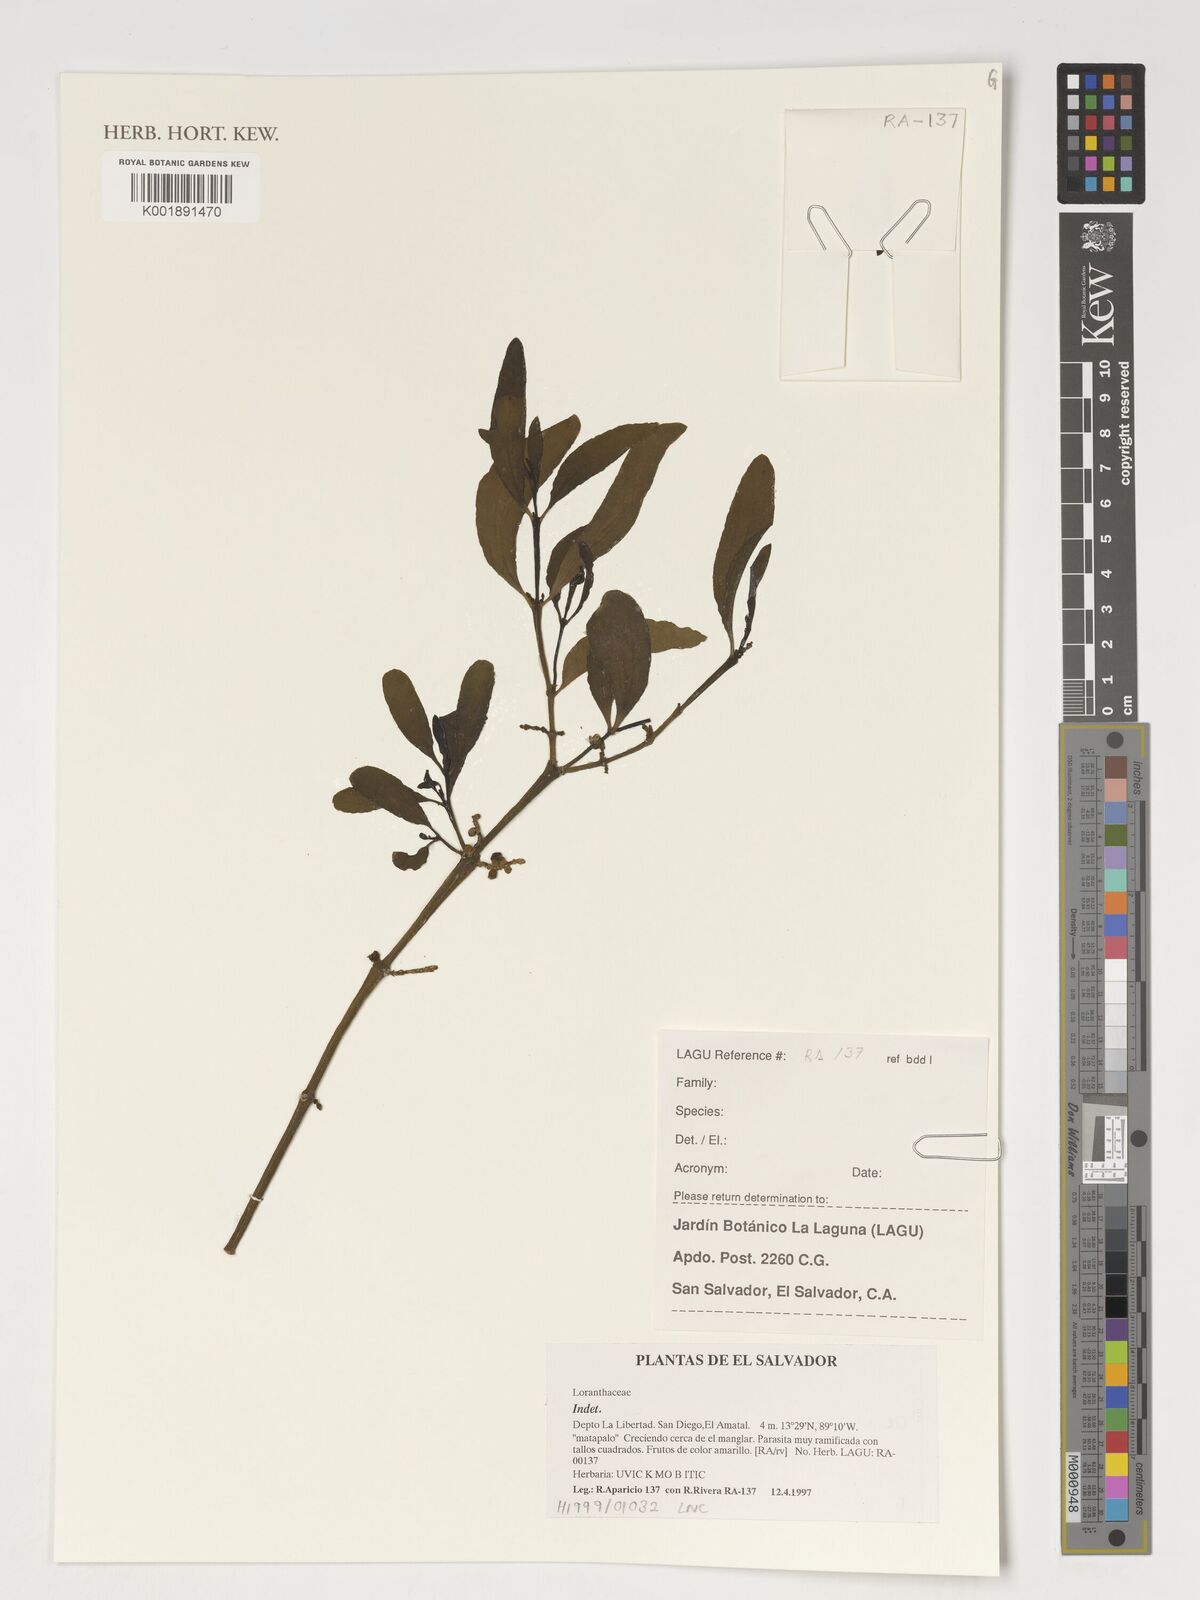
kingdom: Plantae
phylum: Tracheophyta
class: Magnoliopsida
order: Santalales
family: Loranthaceae
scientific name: Loranthaceae
